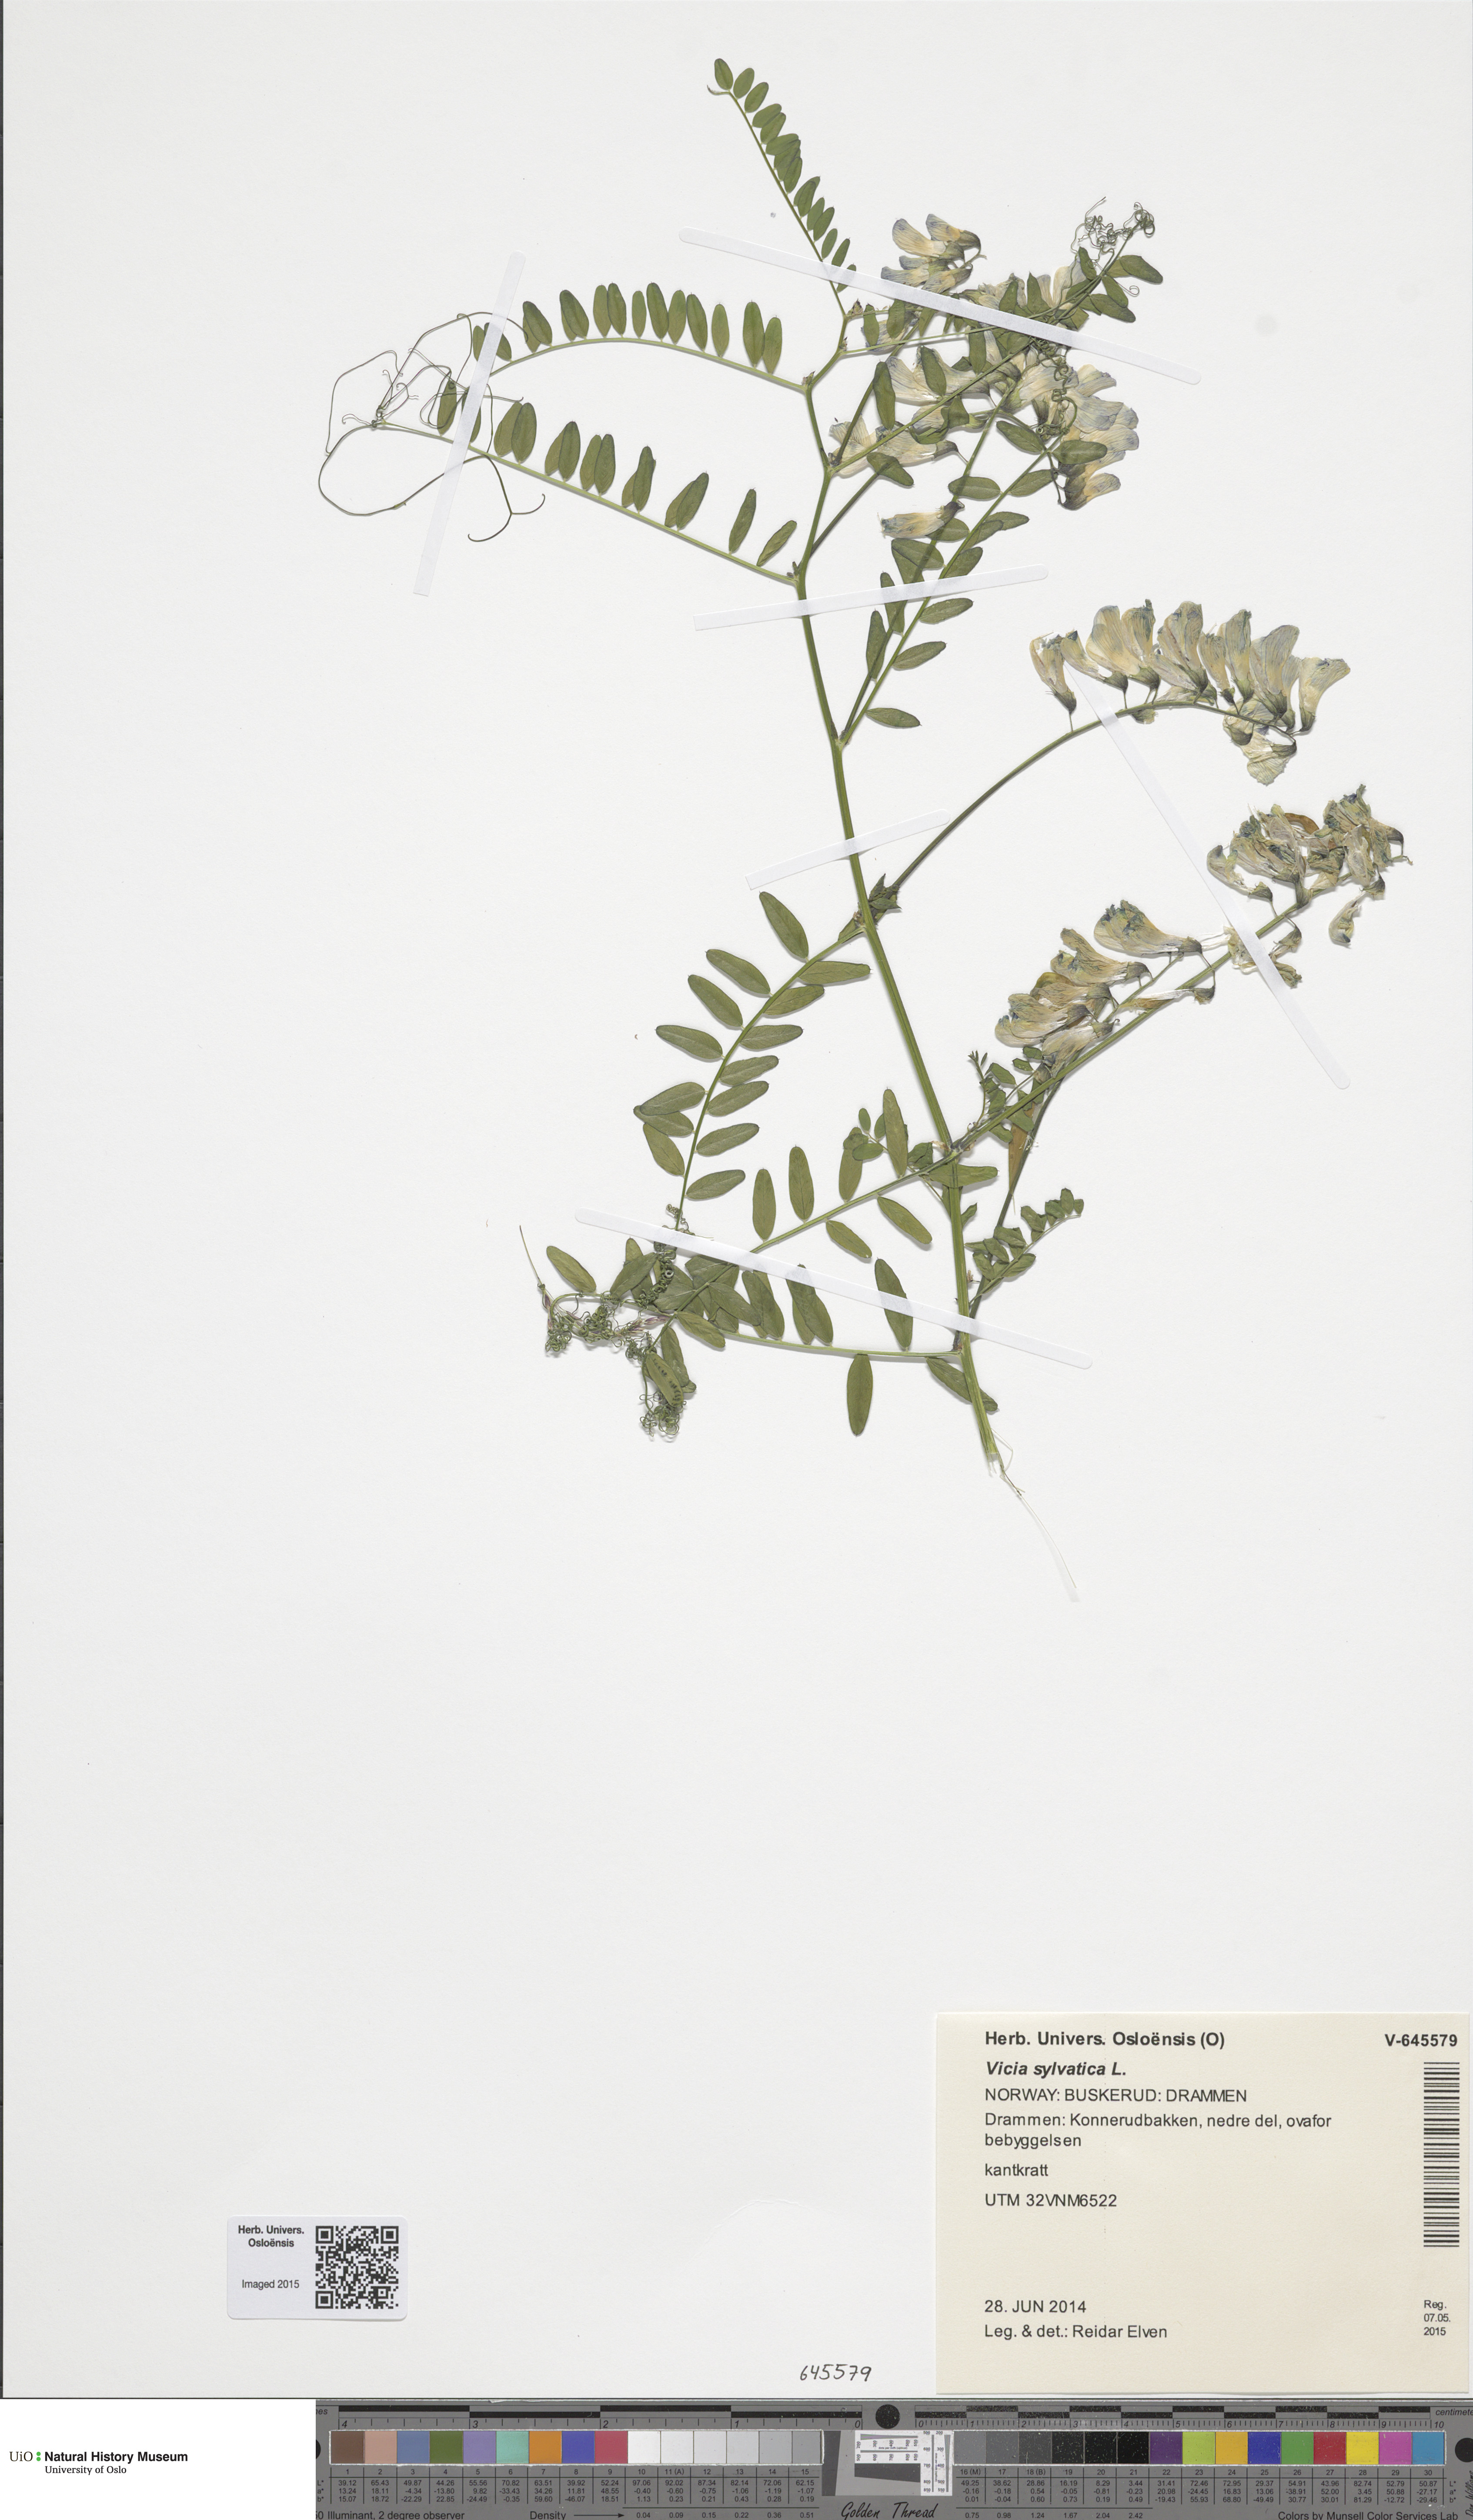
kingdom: Plantae
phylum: Tracheophyta
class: Magnoliopsida
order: Fabales
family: Fabaceae
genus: Vicia
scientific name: Vicia sylvatica
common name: Wood vetch
